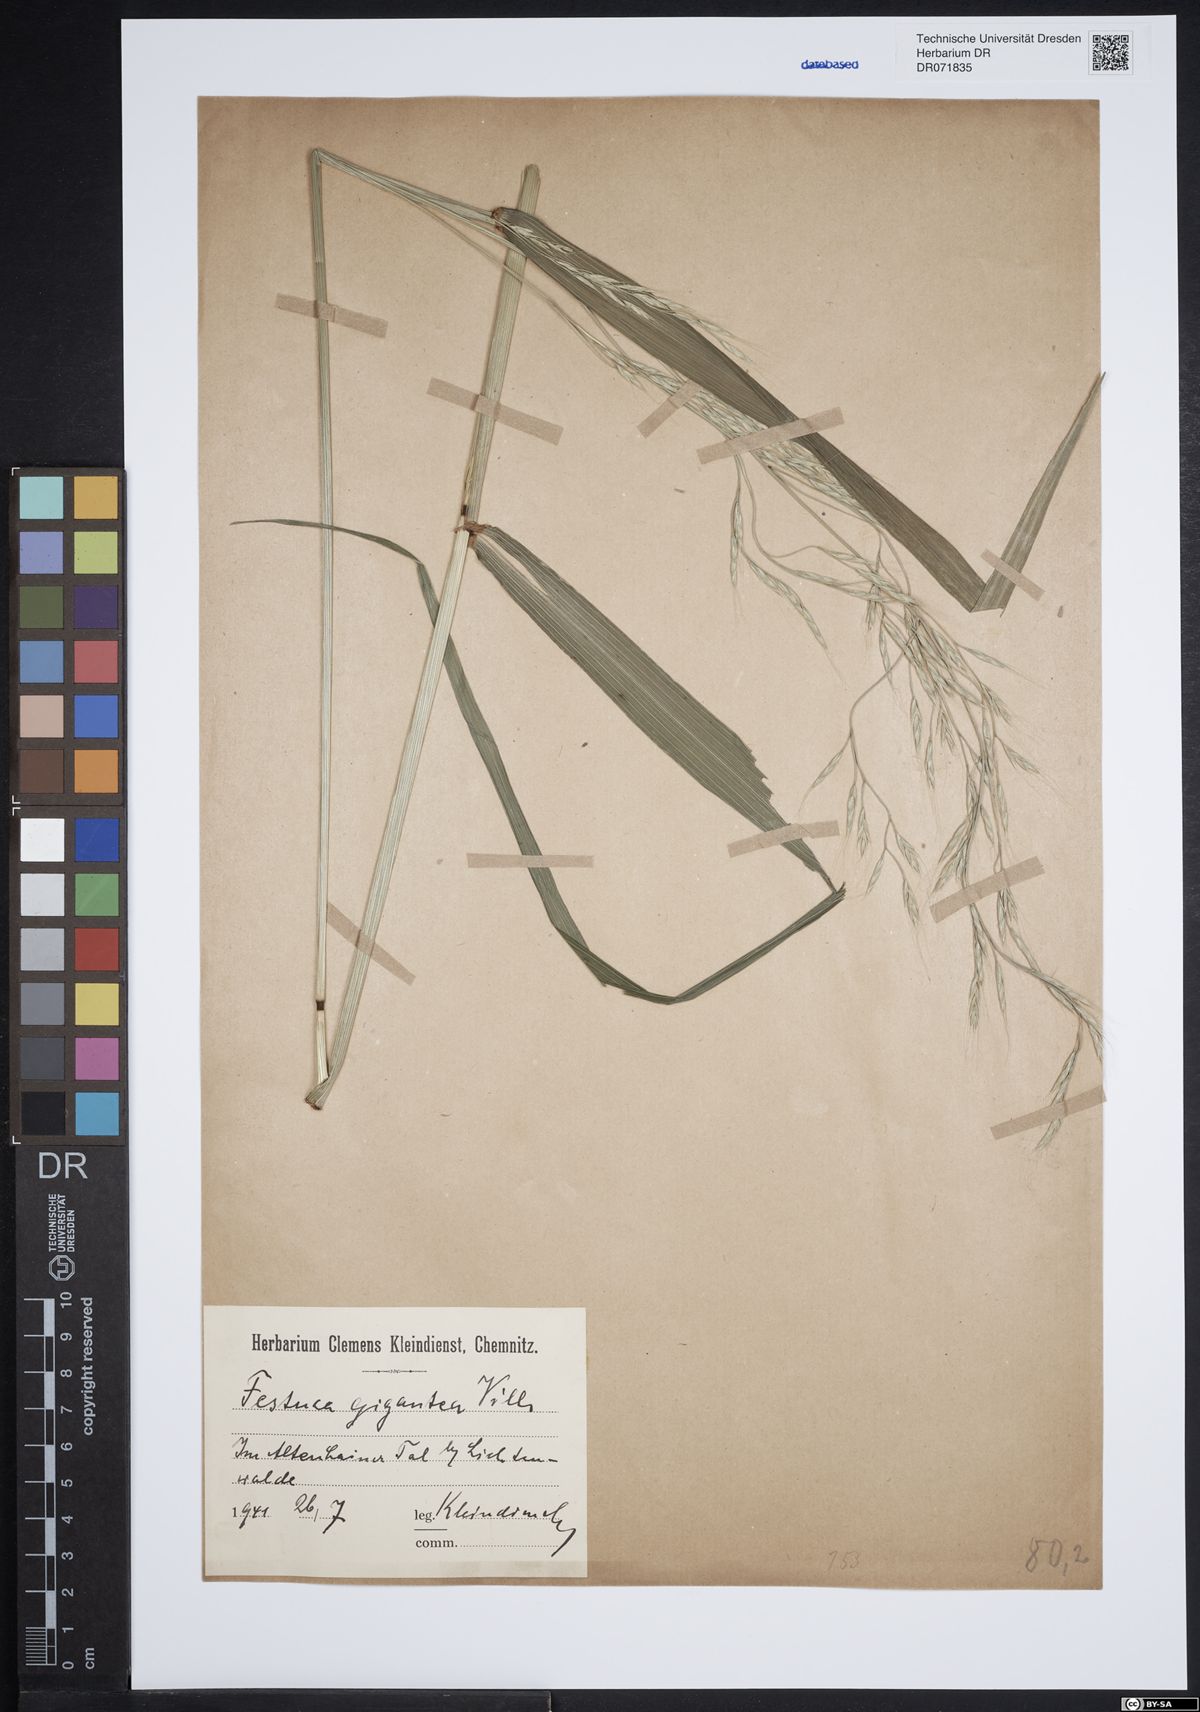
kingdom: Plantae
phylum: Tracheophyta
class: Liliopsida
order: Poales
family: Poaceae
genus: Lolium
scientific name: Lolium giganteum
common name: Giant fescue
